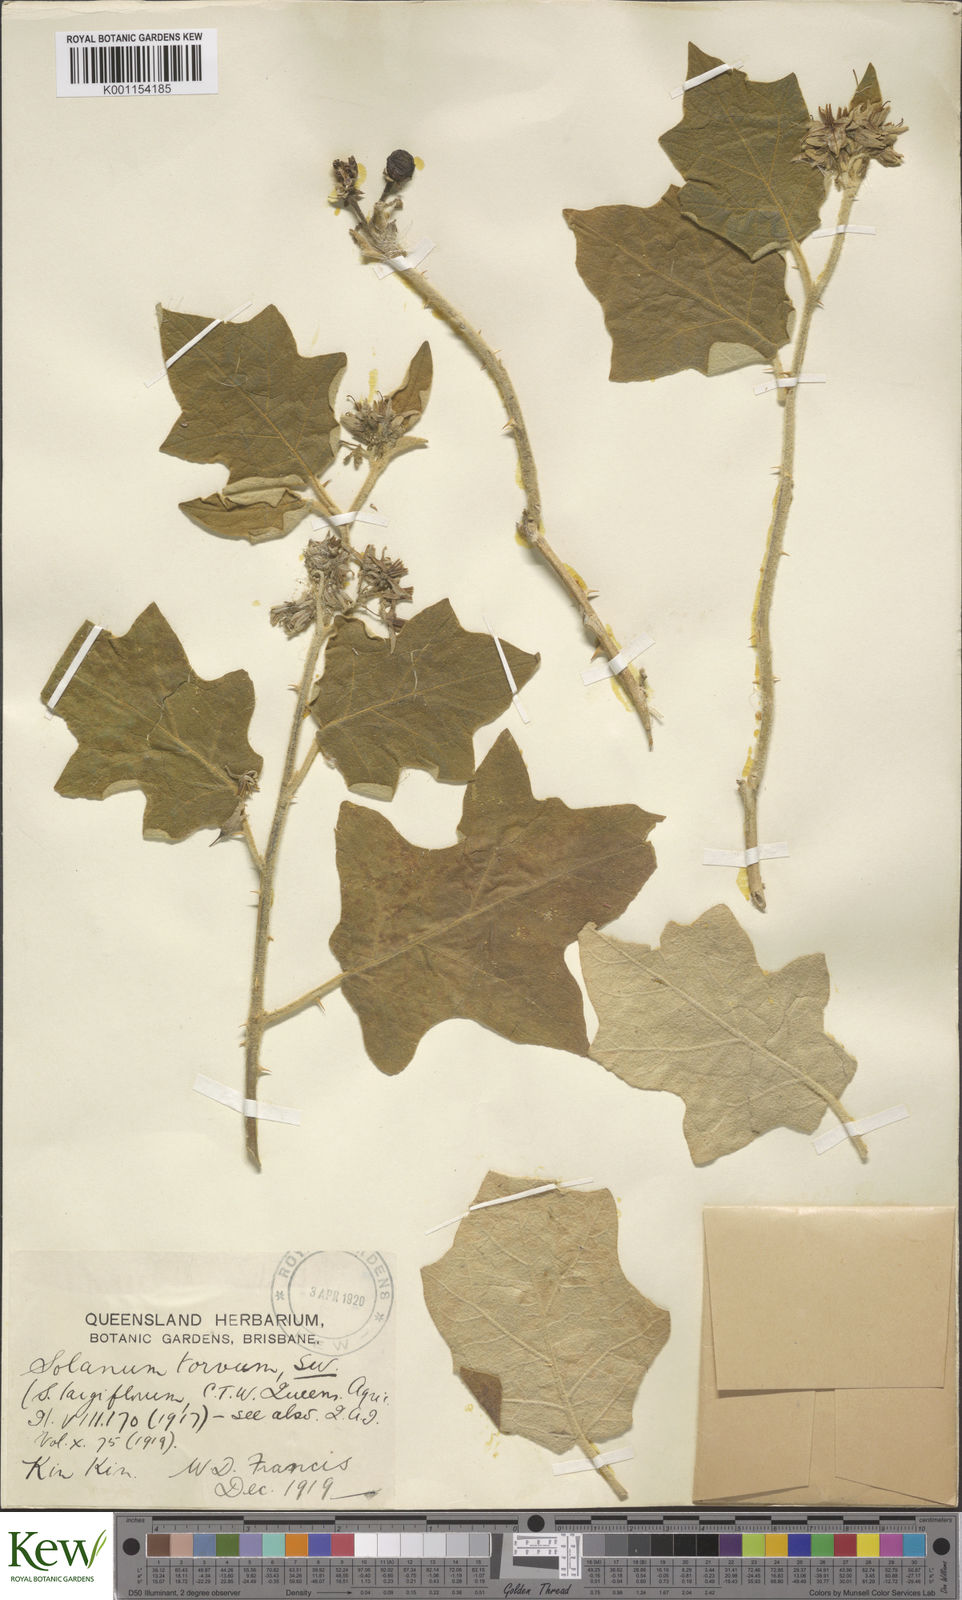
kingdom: Plantae
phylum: Tracheophyta
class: Magnoliopsida
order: Solanales
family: Solanaceae
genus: Solanum
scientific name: Solanum torvum
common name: Turkey berry
